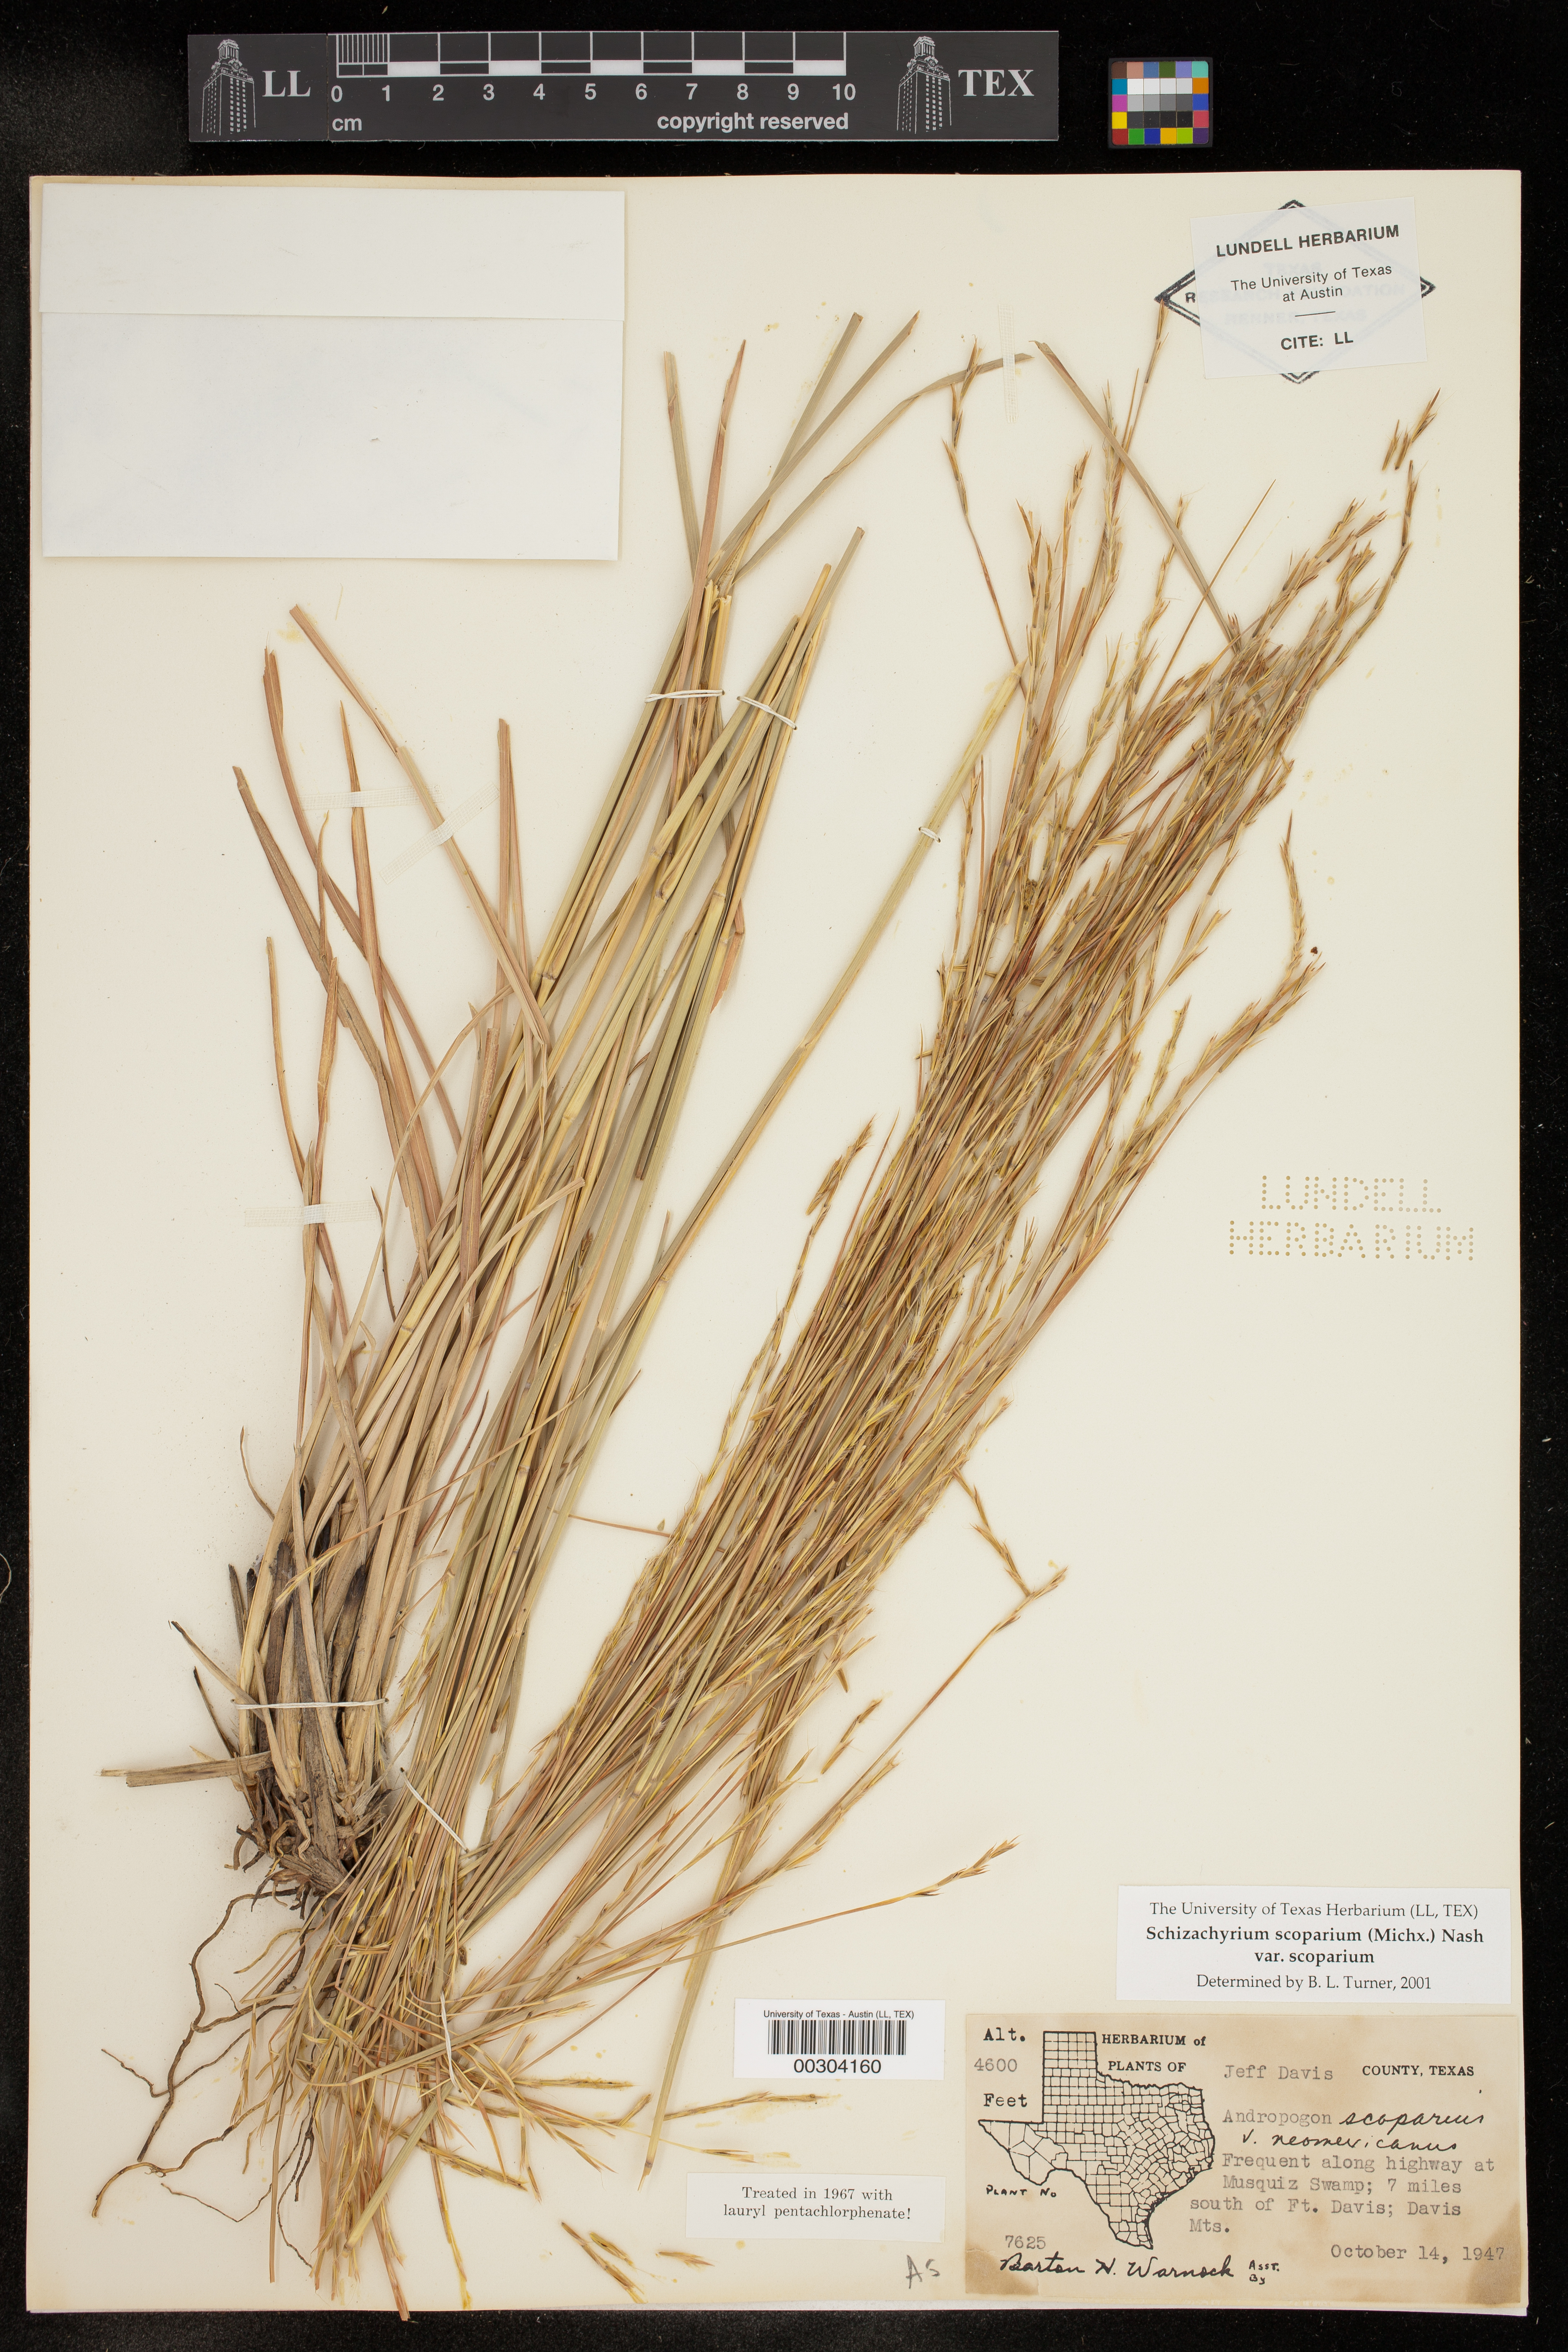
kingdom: Plantae
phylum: Tracheophyta
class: Liliopsida
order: Poales
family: Poaceae
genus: Schizachyrium
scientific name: Schizachyrium scoparium
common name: Little bluestem
